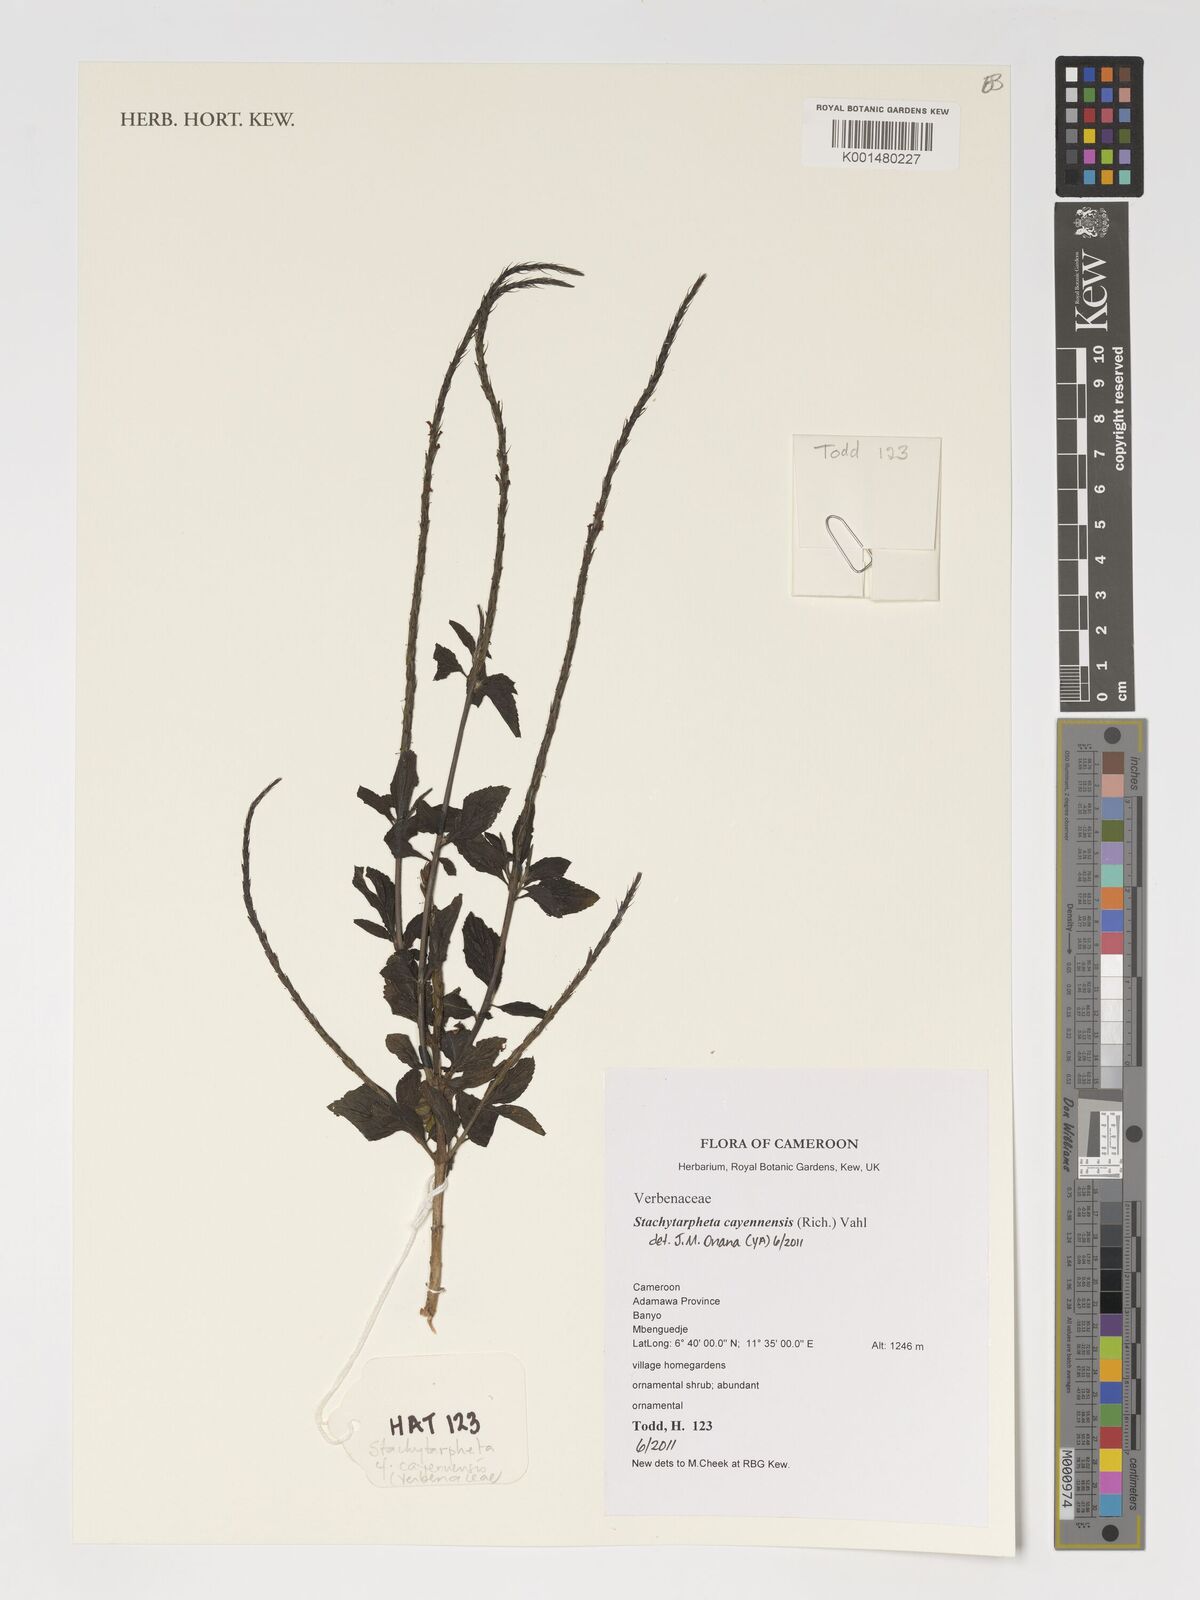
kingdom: Plantae
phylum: Tracheophyta
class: Magnoliopsida
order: Lamiales
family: Verbenaceae
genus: Stachytarpheta
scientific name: Stachytarpheta cayennensis
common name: Cayenne porterweed
